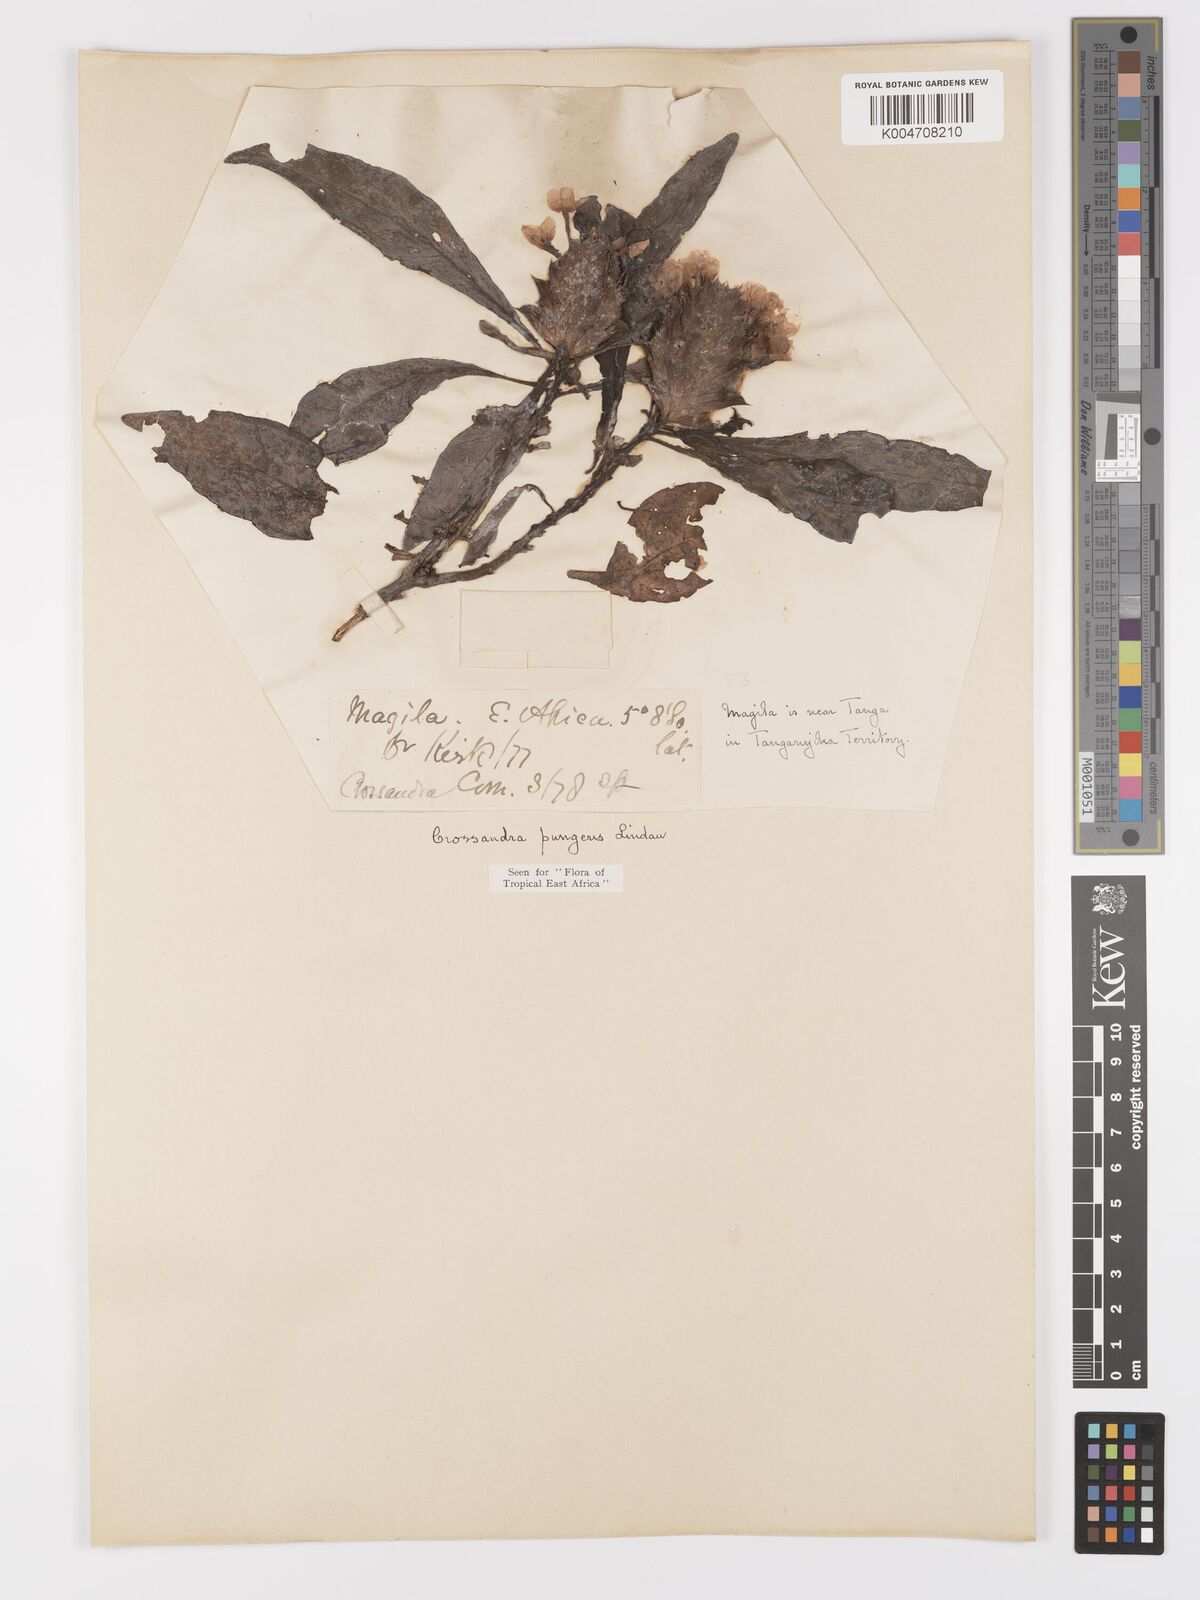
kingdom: Plantae
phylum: Tracheophyta
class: Magnoliopsida
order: Lamiales
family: Acanthaceae
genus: Crossandra
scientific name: Crossandra pungens
